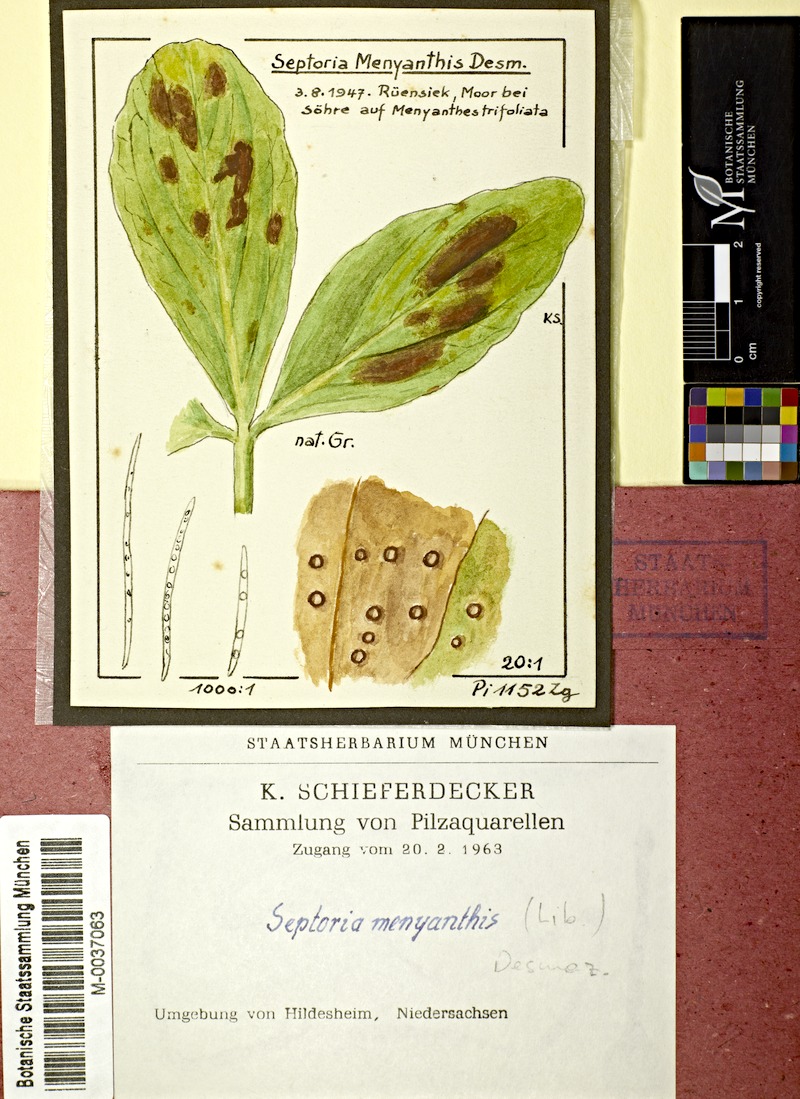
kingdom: Plantae
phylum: Tracheophyta
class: Magnoliopsida
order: Asterales
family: Menyanthaceae
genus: Menyanthes
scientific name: Menyanthes trifoliata
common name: Bogbean
